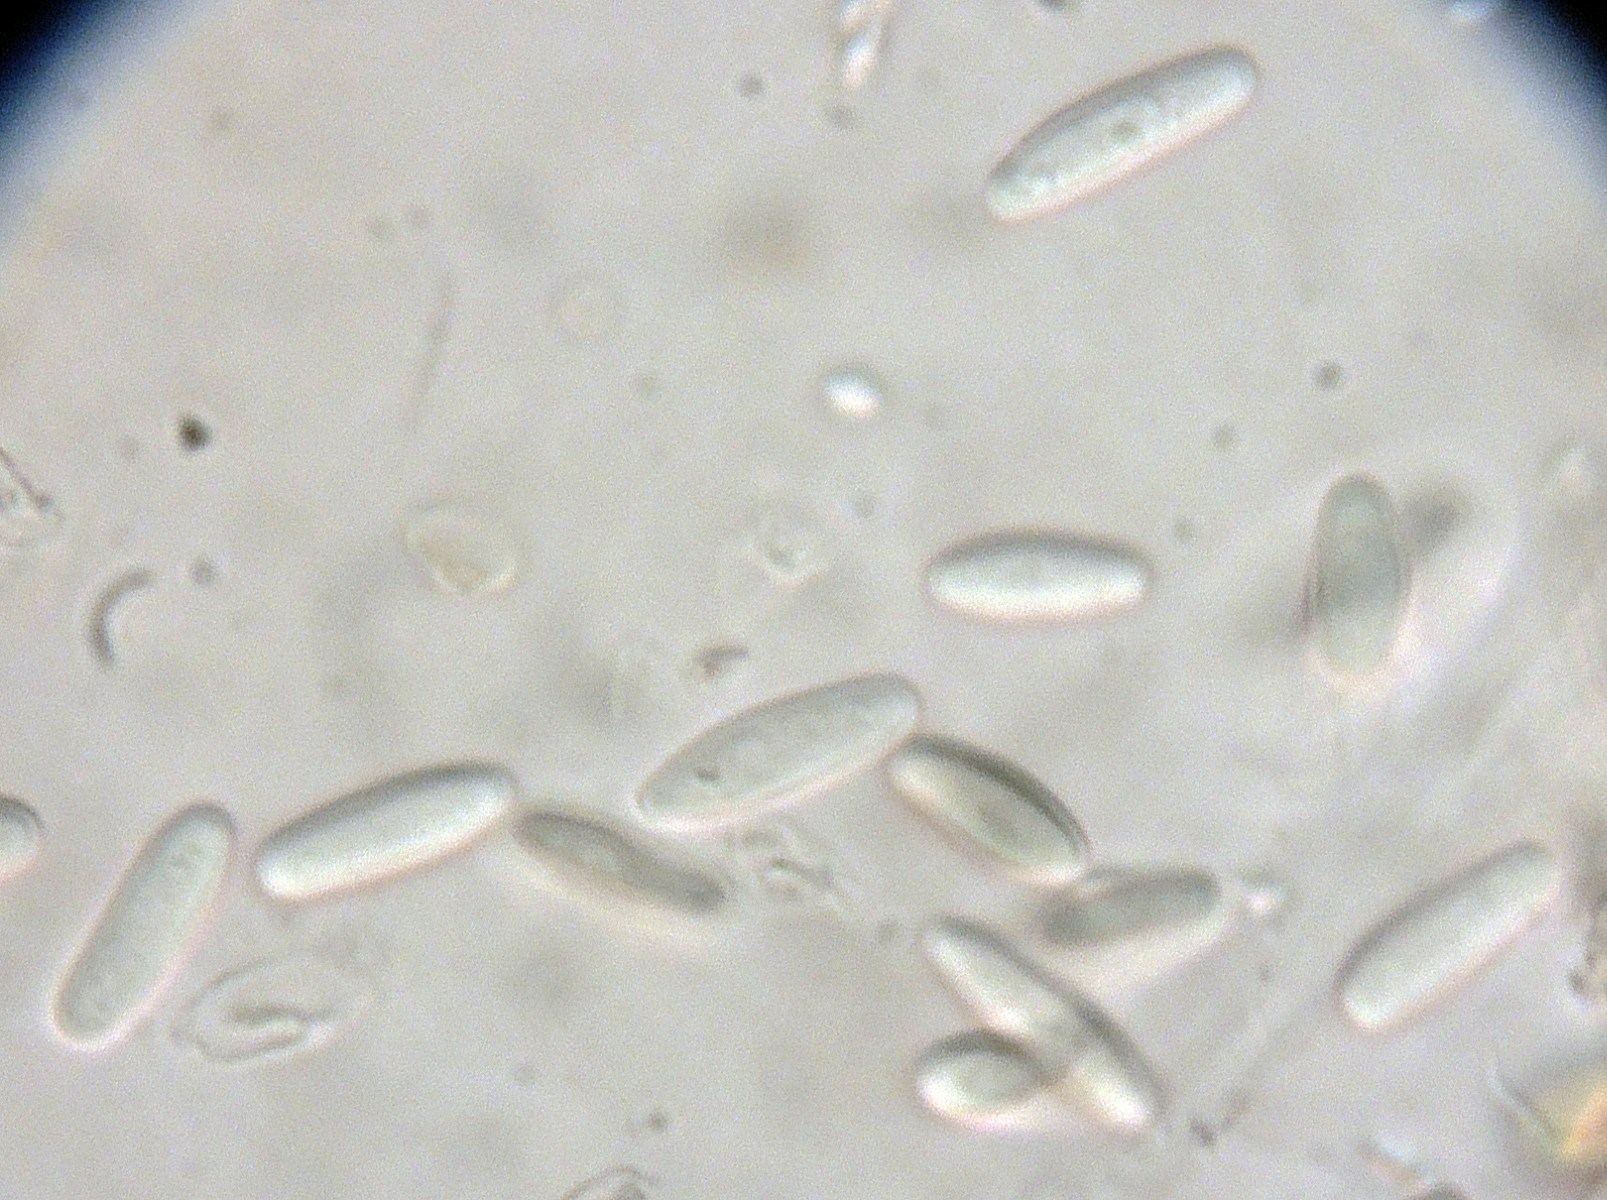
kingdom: Fungi
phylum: Ascomycota
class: Leotiomycetes
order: Helotiales
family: Helotiaceae
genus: Hymenoscyphus
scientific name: Hymenoscyphus robustior
